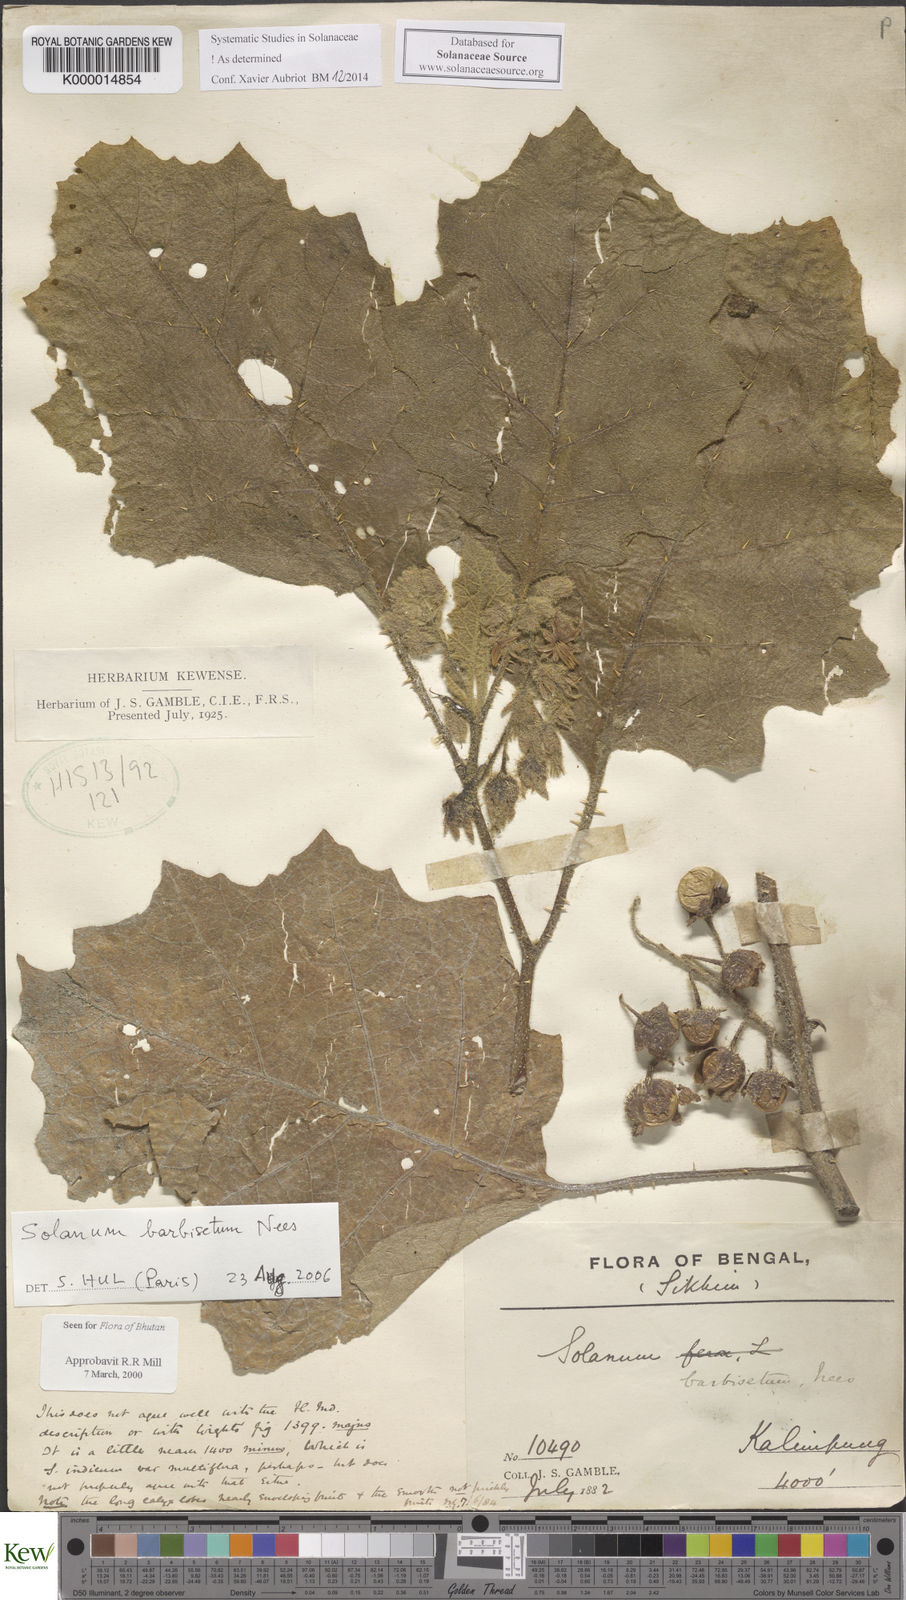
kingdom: Plantae
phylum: Tracheophyta
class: Magnoliopsida
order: Solanales
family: Solanaceae
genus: Solanum
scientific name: Solanum barbisetum
